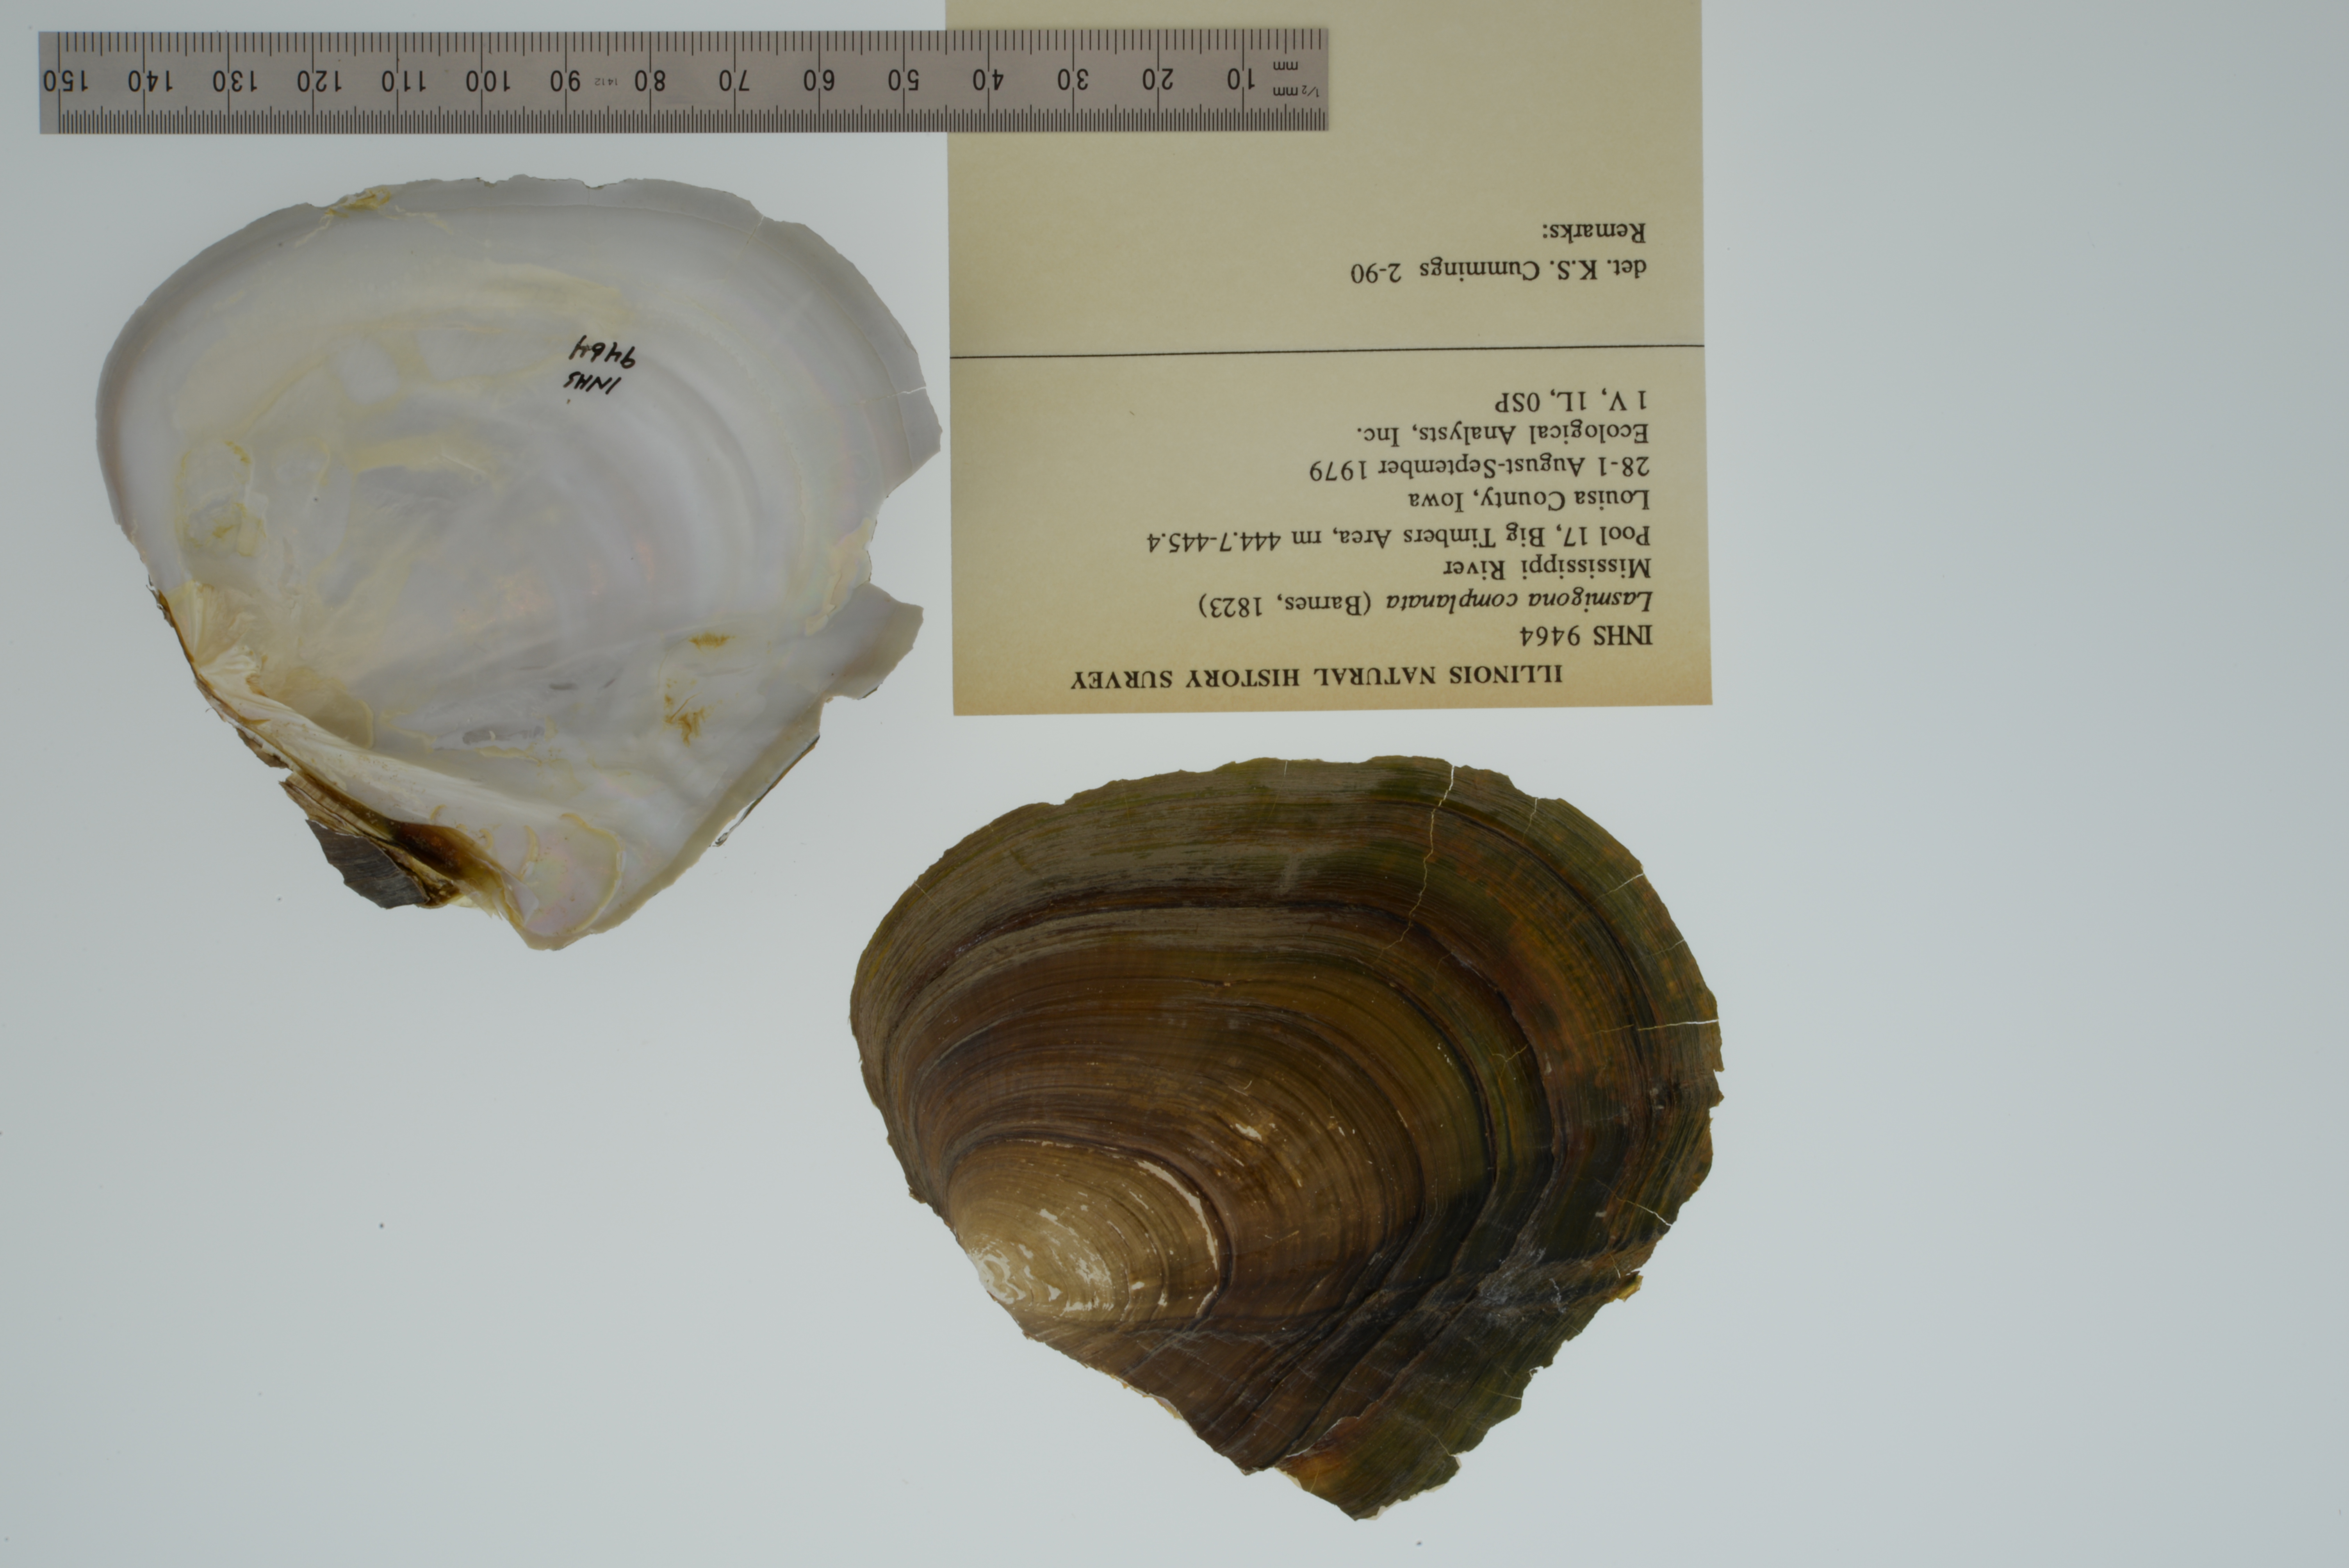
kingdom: Animalia
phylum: Mollusca
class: Bivalvia
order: Unionida
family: Unionidae
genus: Lasmigona
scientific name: Lasmigona complanata
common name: White heelsplitter
